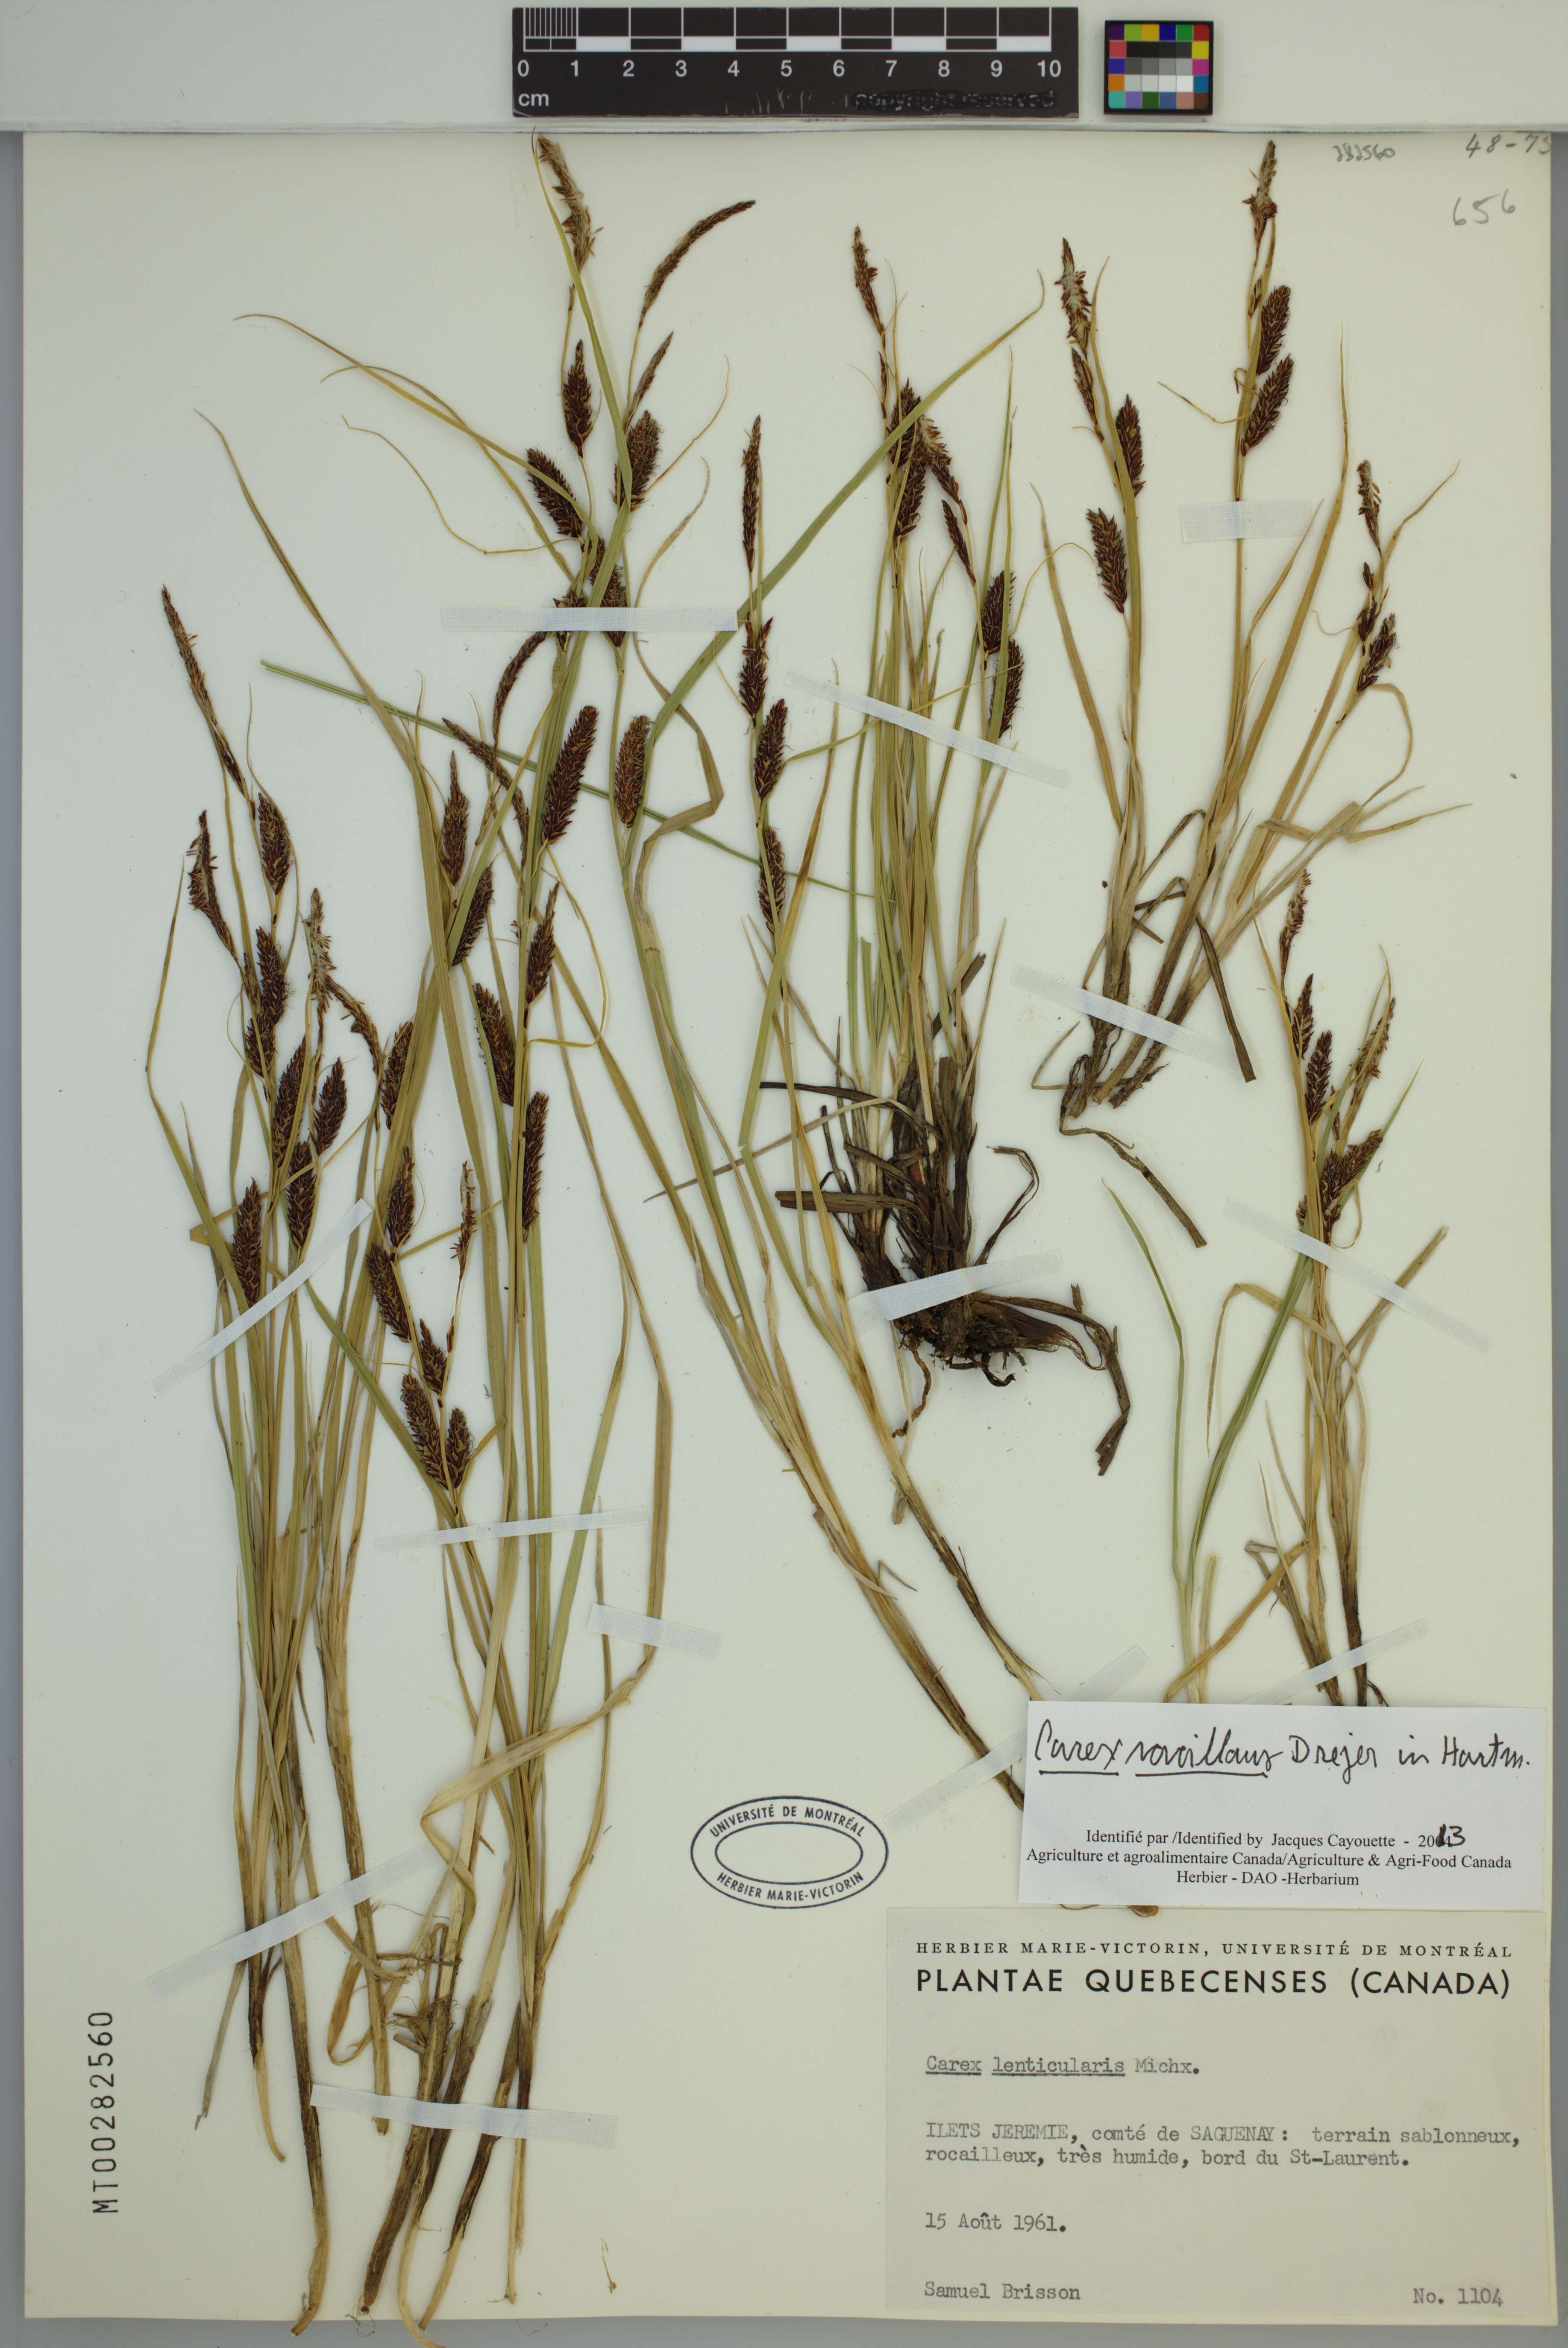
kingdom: Plantae
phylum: Tracheophyta
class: Liliopsida
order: Poales
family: Cyperaceae
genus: Carex
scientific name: Carex vacillans
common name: Sedge
